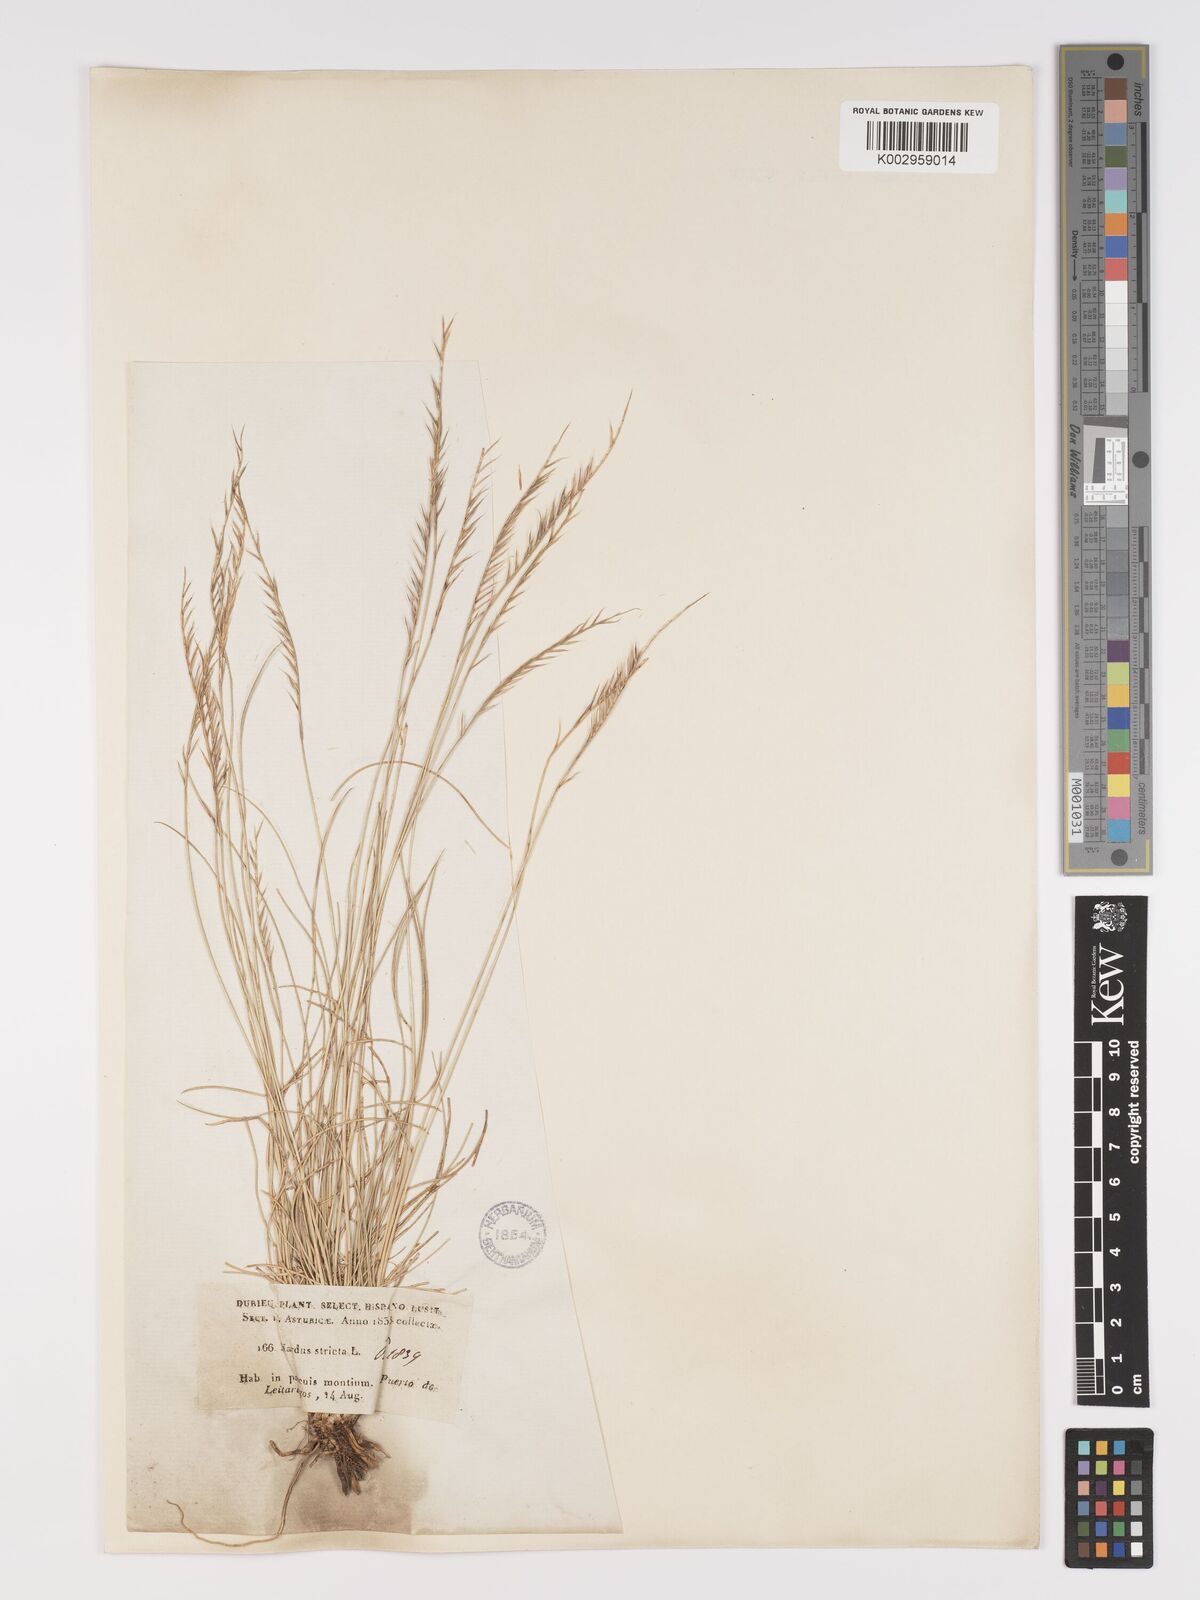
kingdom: Plantae
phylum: Tracheophyta
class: Liliopsida
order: Poales
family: Poaceae
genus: Nardus
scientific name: Nardus stricta
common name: Mat-grass
